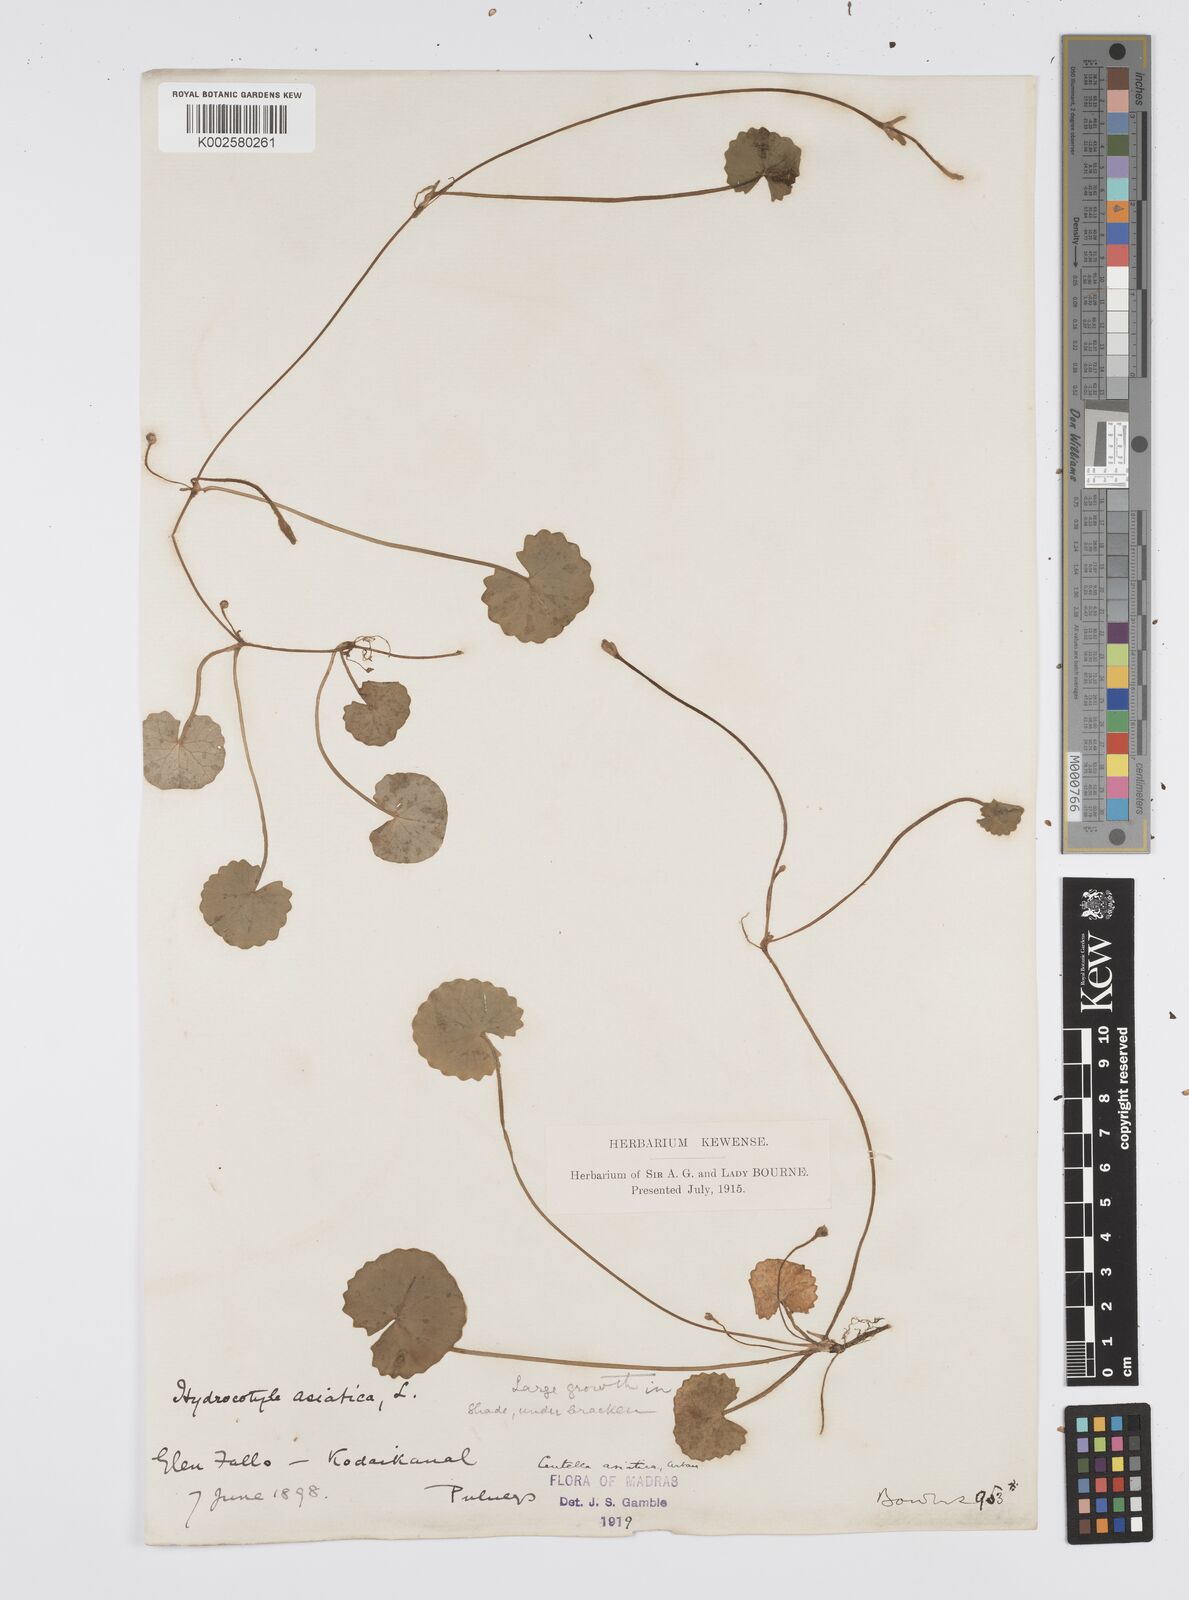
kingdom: Plantae
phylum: Tracheophyta
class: Magnoliopsida
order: Apiales
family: Apiaceae
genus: Centella
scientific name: Centella asiatica
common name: Spadeleaf
